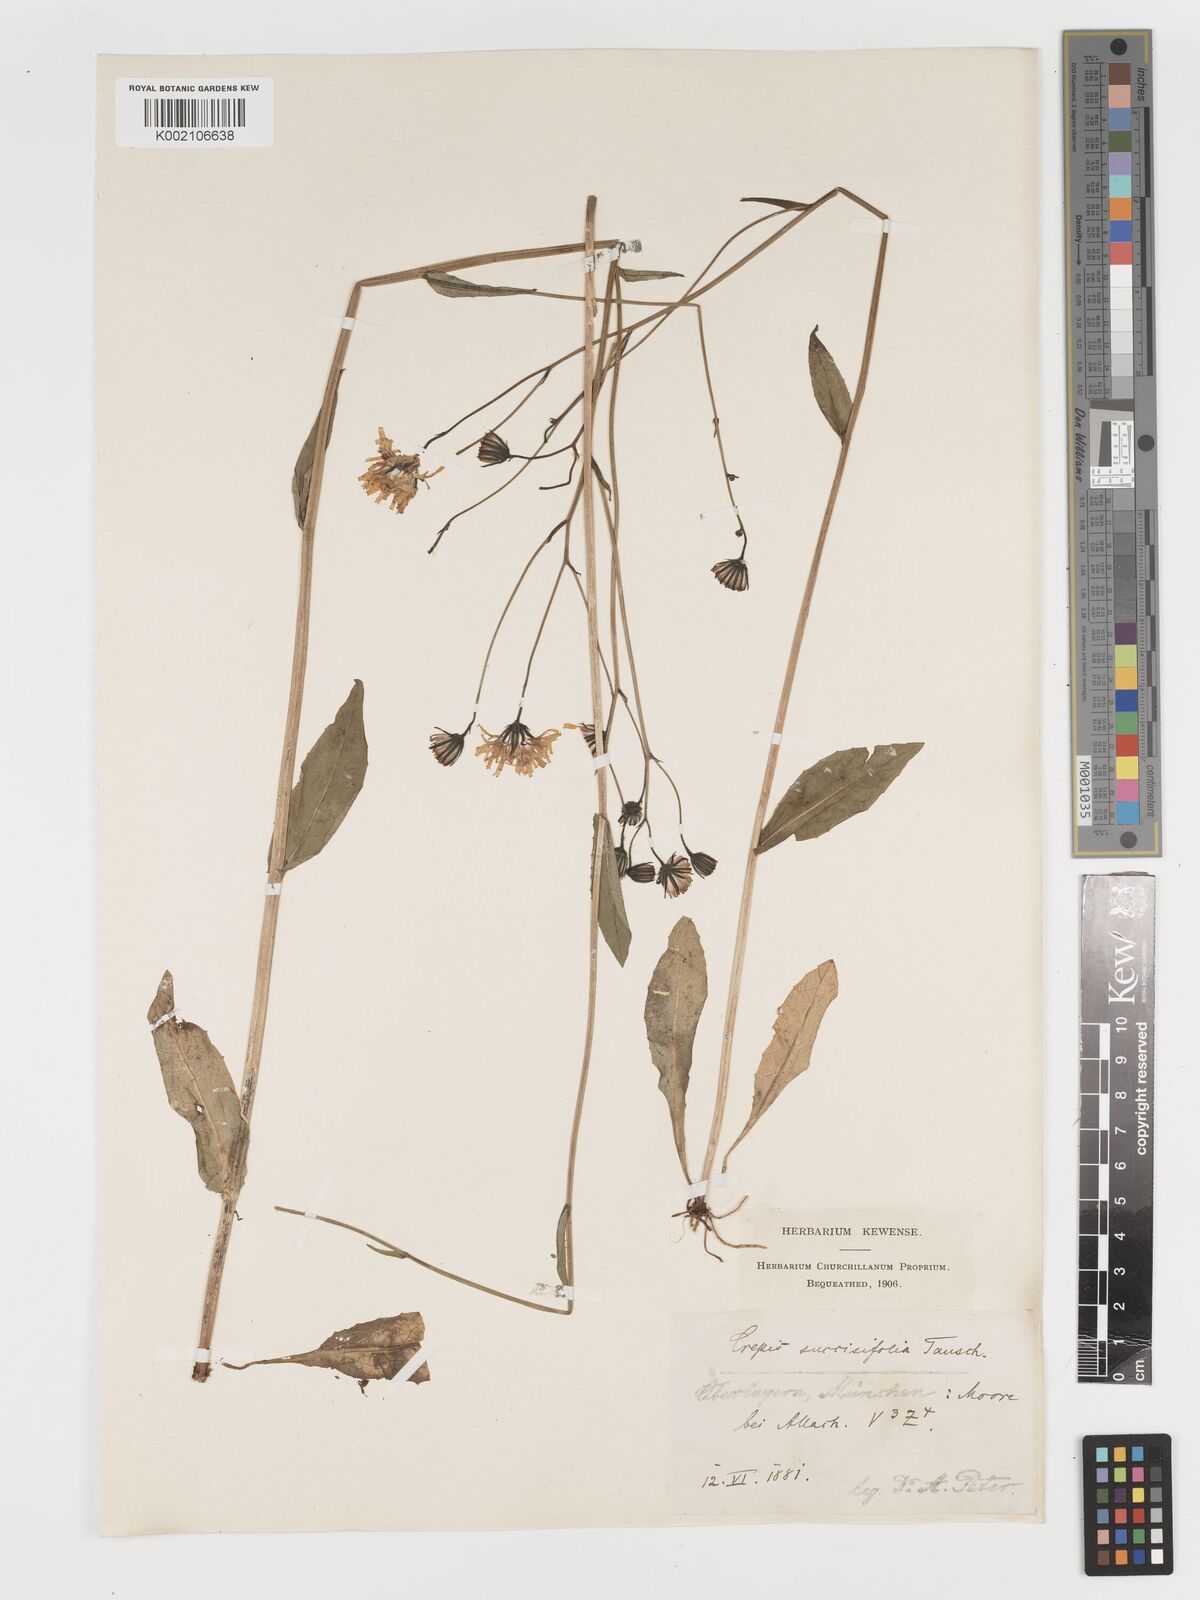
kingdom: Plantae
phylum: Tracheophyta
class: Magnoliopsida
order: Asterales
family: Asteraceae
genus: Crepis
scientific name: Crepis mollis
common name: Northern hawk's-beard
